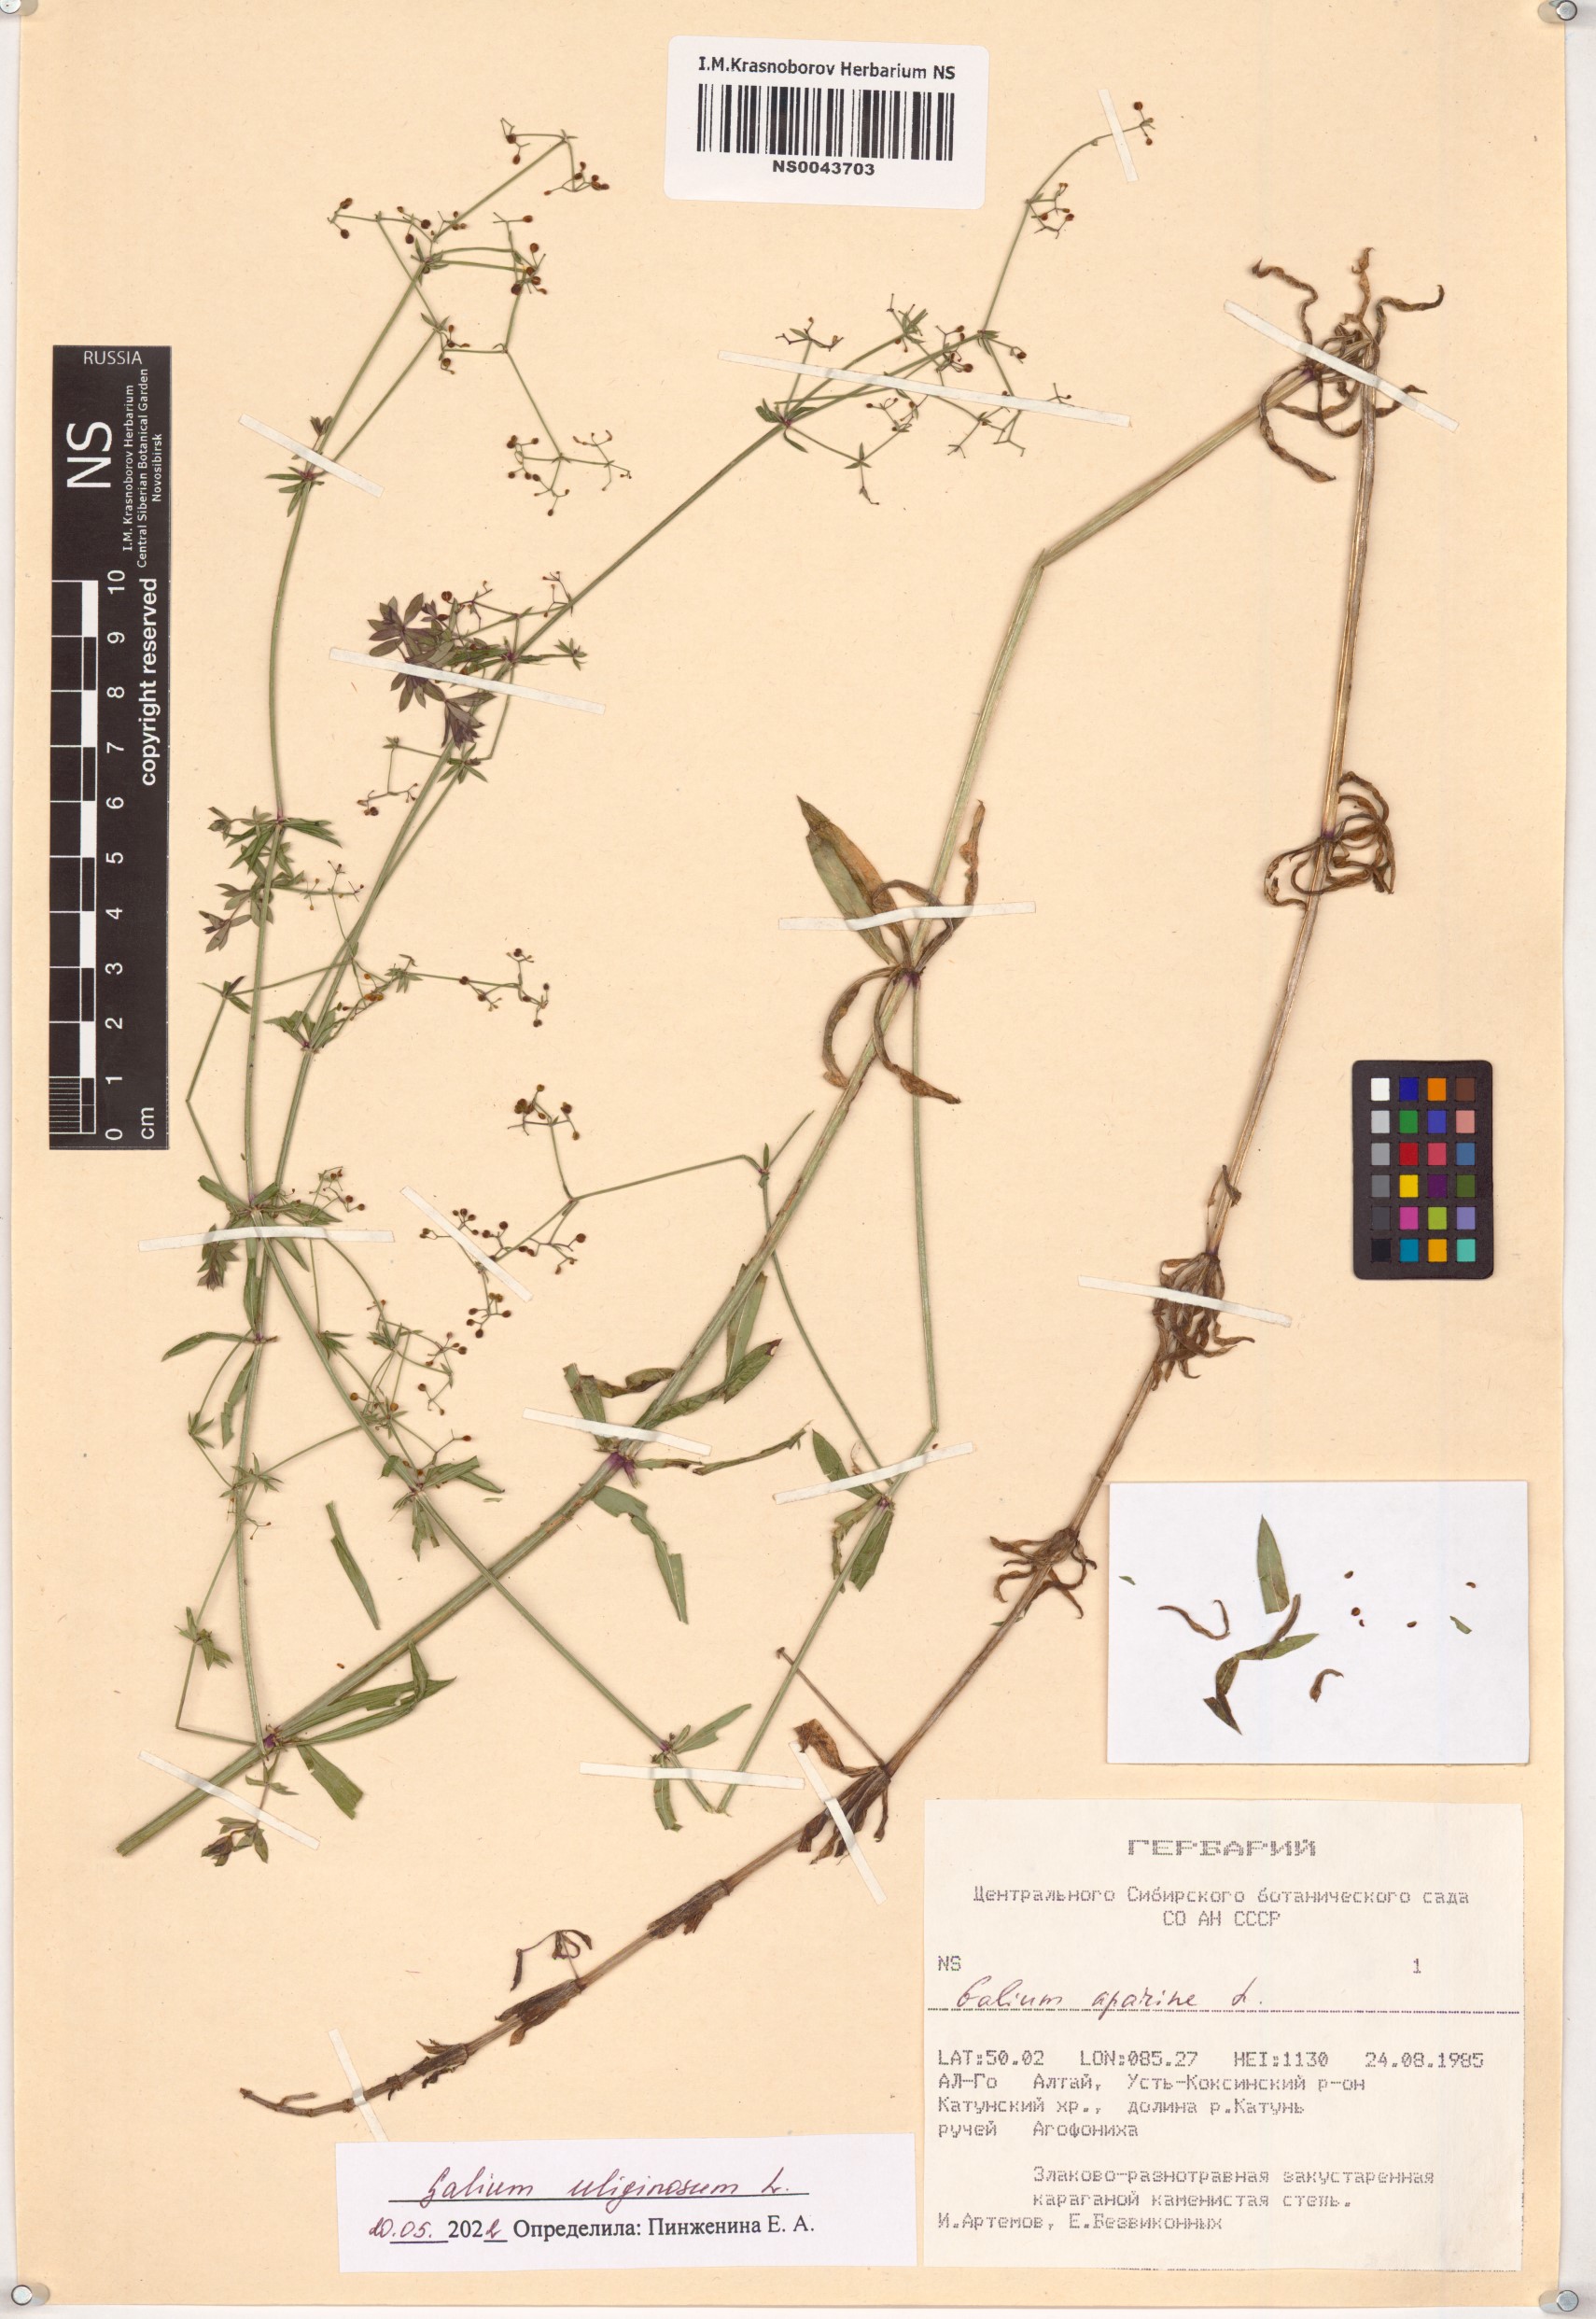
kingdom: Plantae
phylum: Tracheophyta
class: Magnoliopsida
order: Gentianales
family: Rubiaceae
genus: Galium
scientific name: Galium uliginosum
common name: Fen bedstraw
